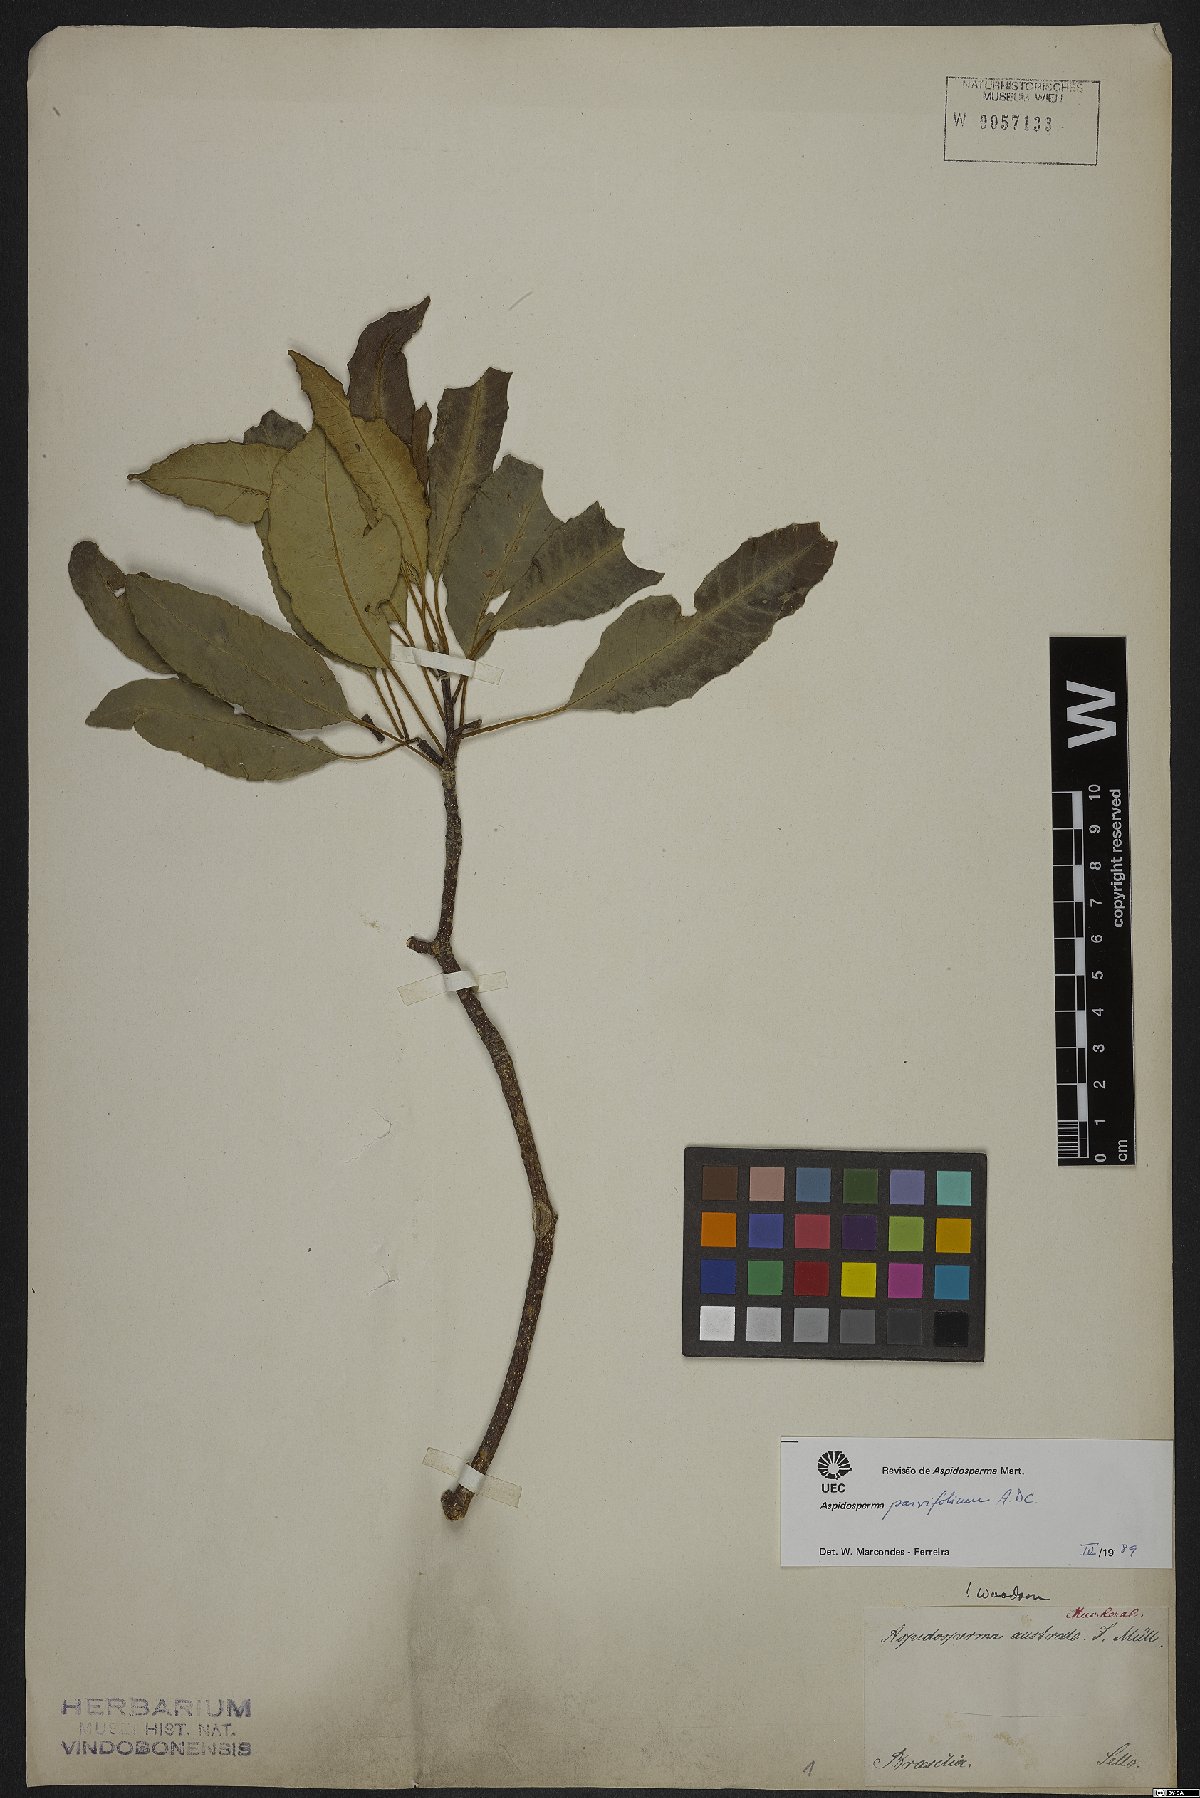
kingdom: Plantae
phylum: Tracheophyta
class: Magnoliopsida
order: Gentianales
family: Apocynaceae
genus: Aspidosperma
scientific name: Aspidosperma parvifolium
